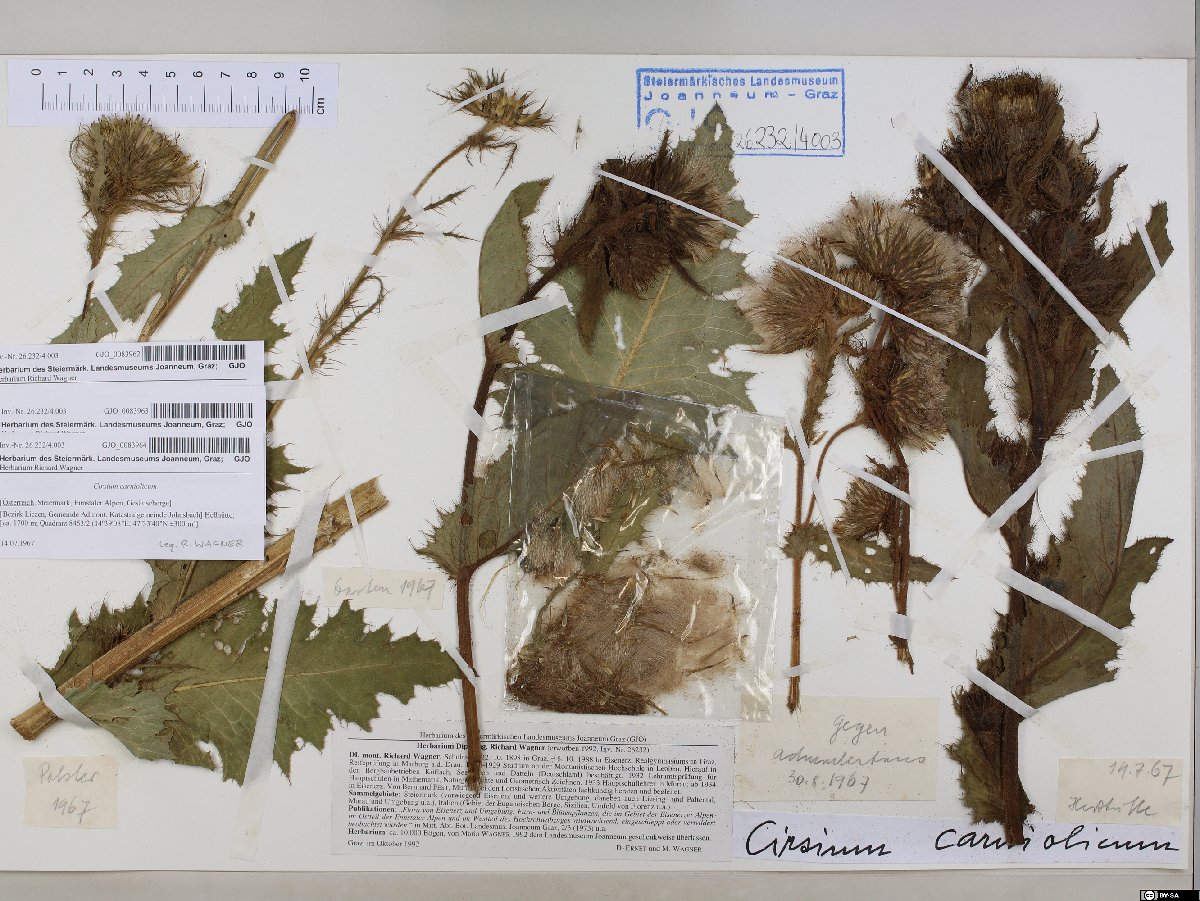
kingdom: Plantae
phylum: Tracheophyta
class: Magnoliopsida
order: Asterales
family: Asteraceae
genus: Cirsium
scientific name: Cirsium carniolicum
